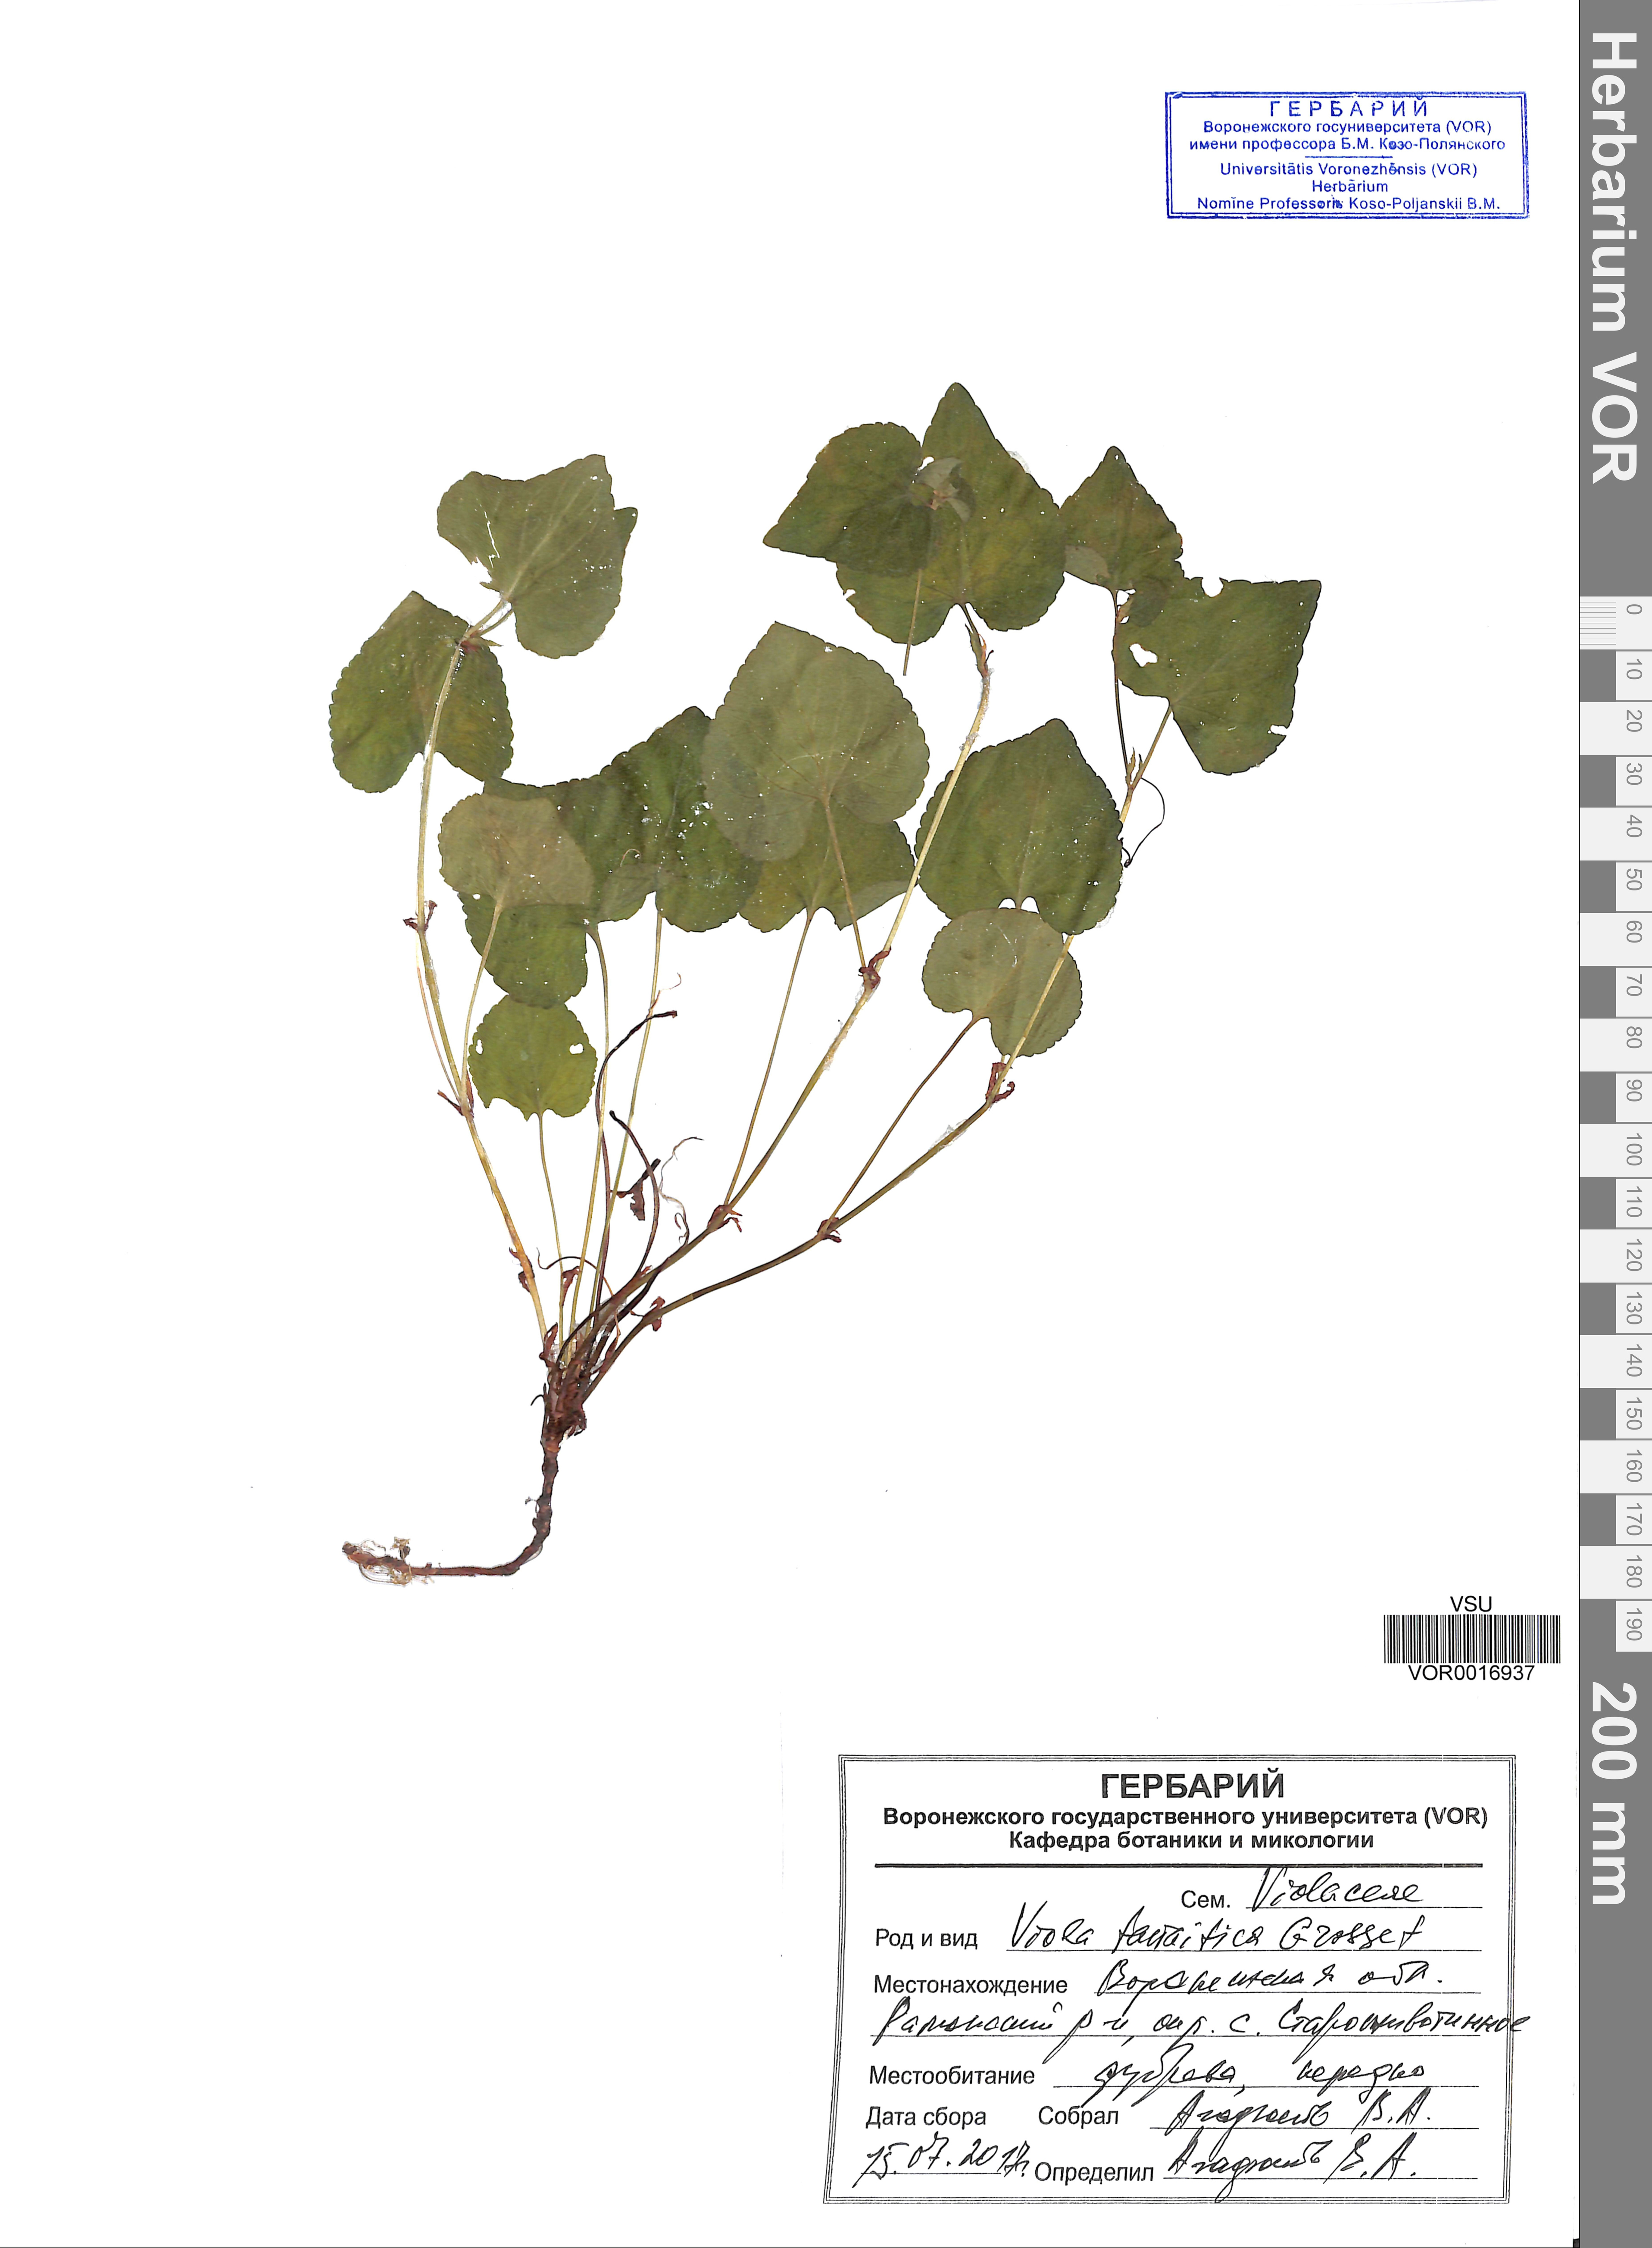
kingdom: Plantae
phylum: Tracheophyta
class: Magnoliopsida
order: Malpighiales
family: Violaceae
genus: Viola
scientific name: Viola tanaitica
